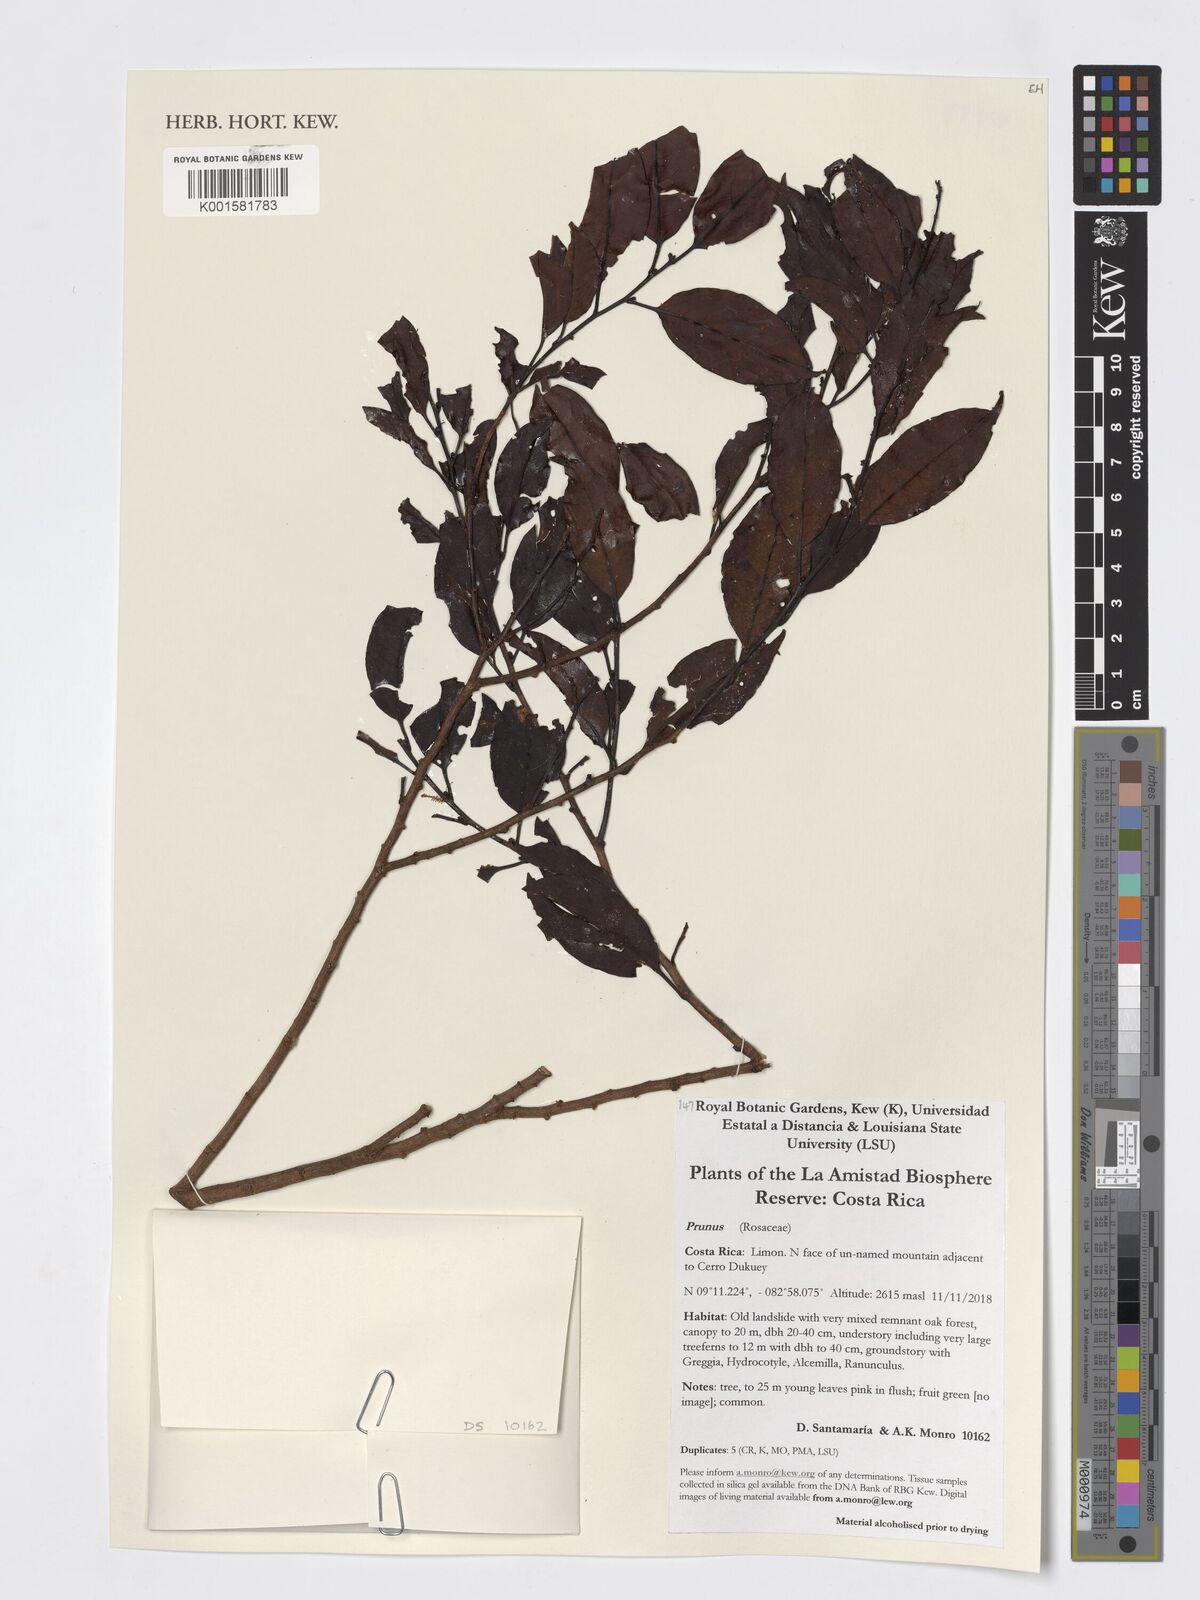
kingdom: Plantae
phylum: Tracheophyta
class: Magnoliopsida
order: Rosales
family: Rosaceae
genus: Prunus
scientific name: Prunus
